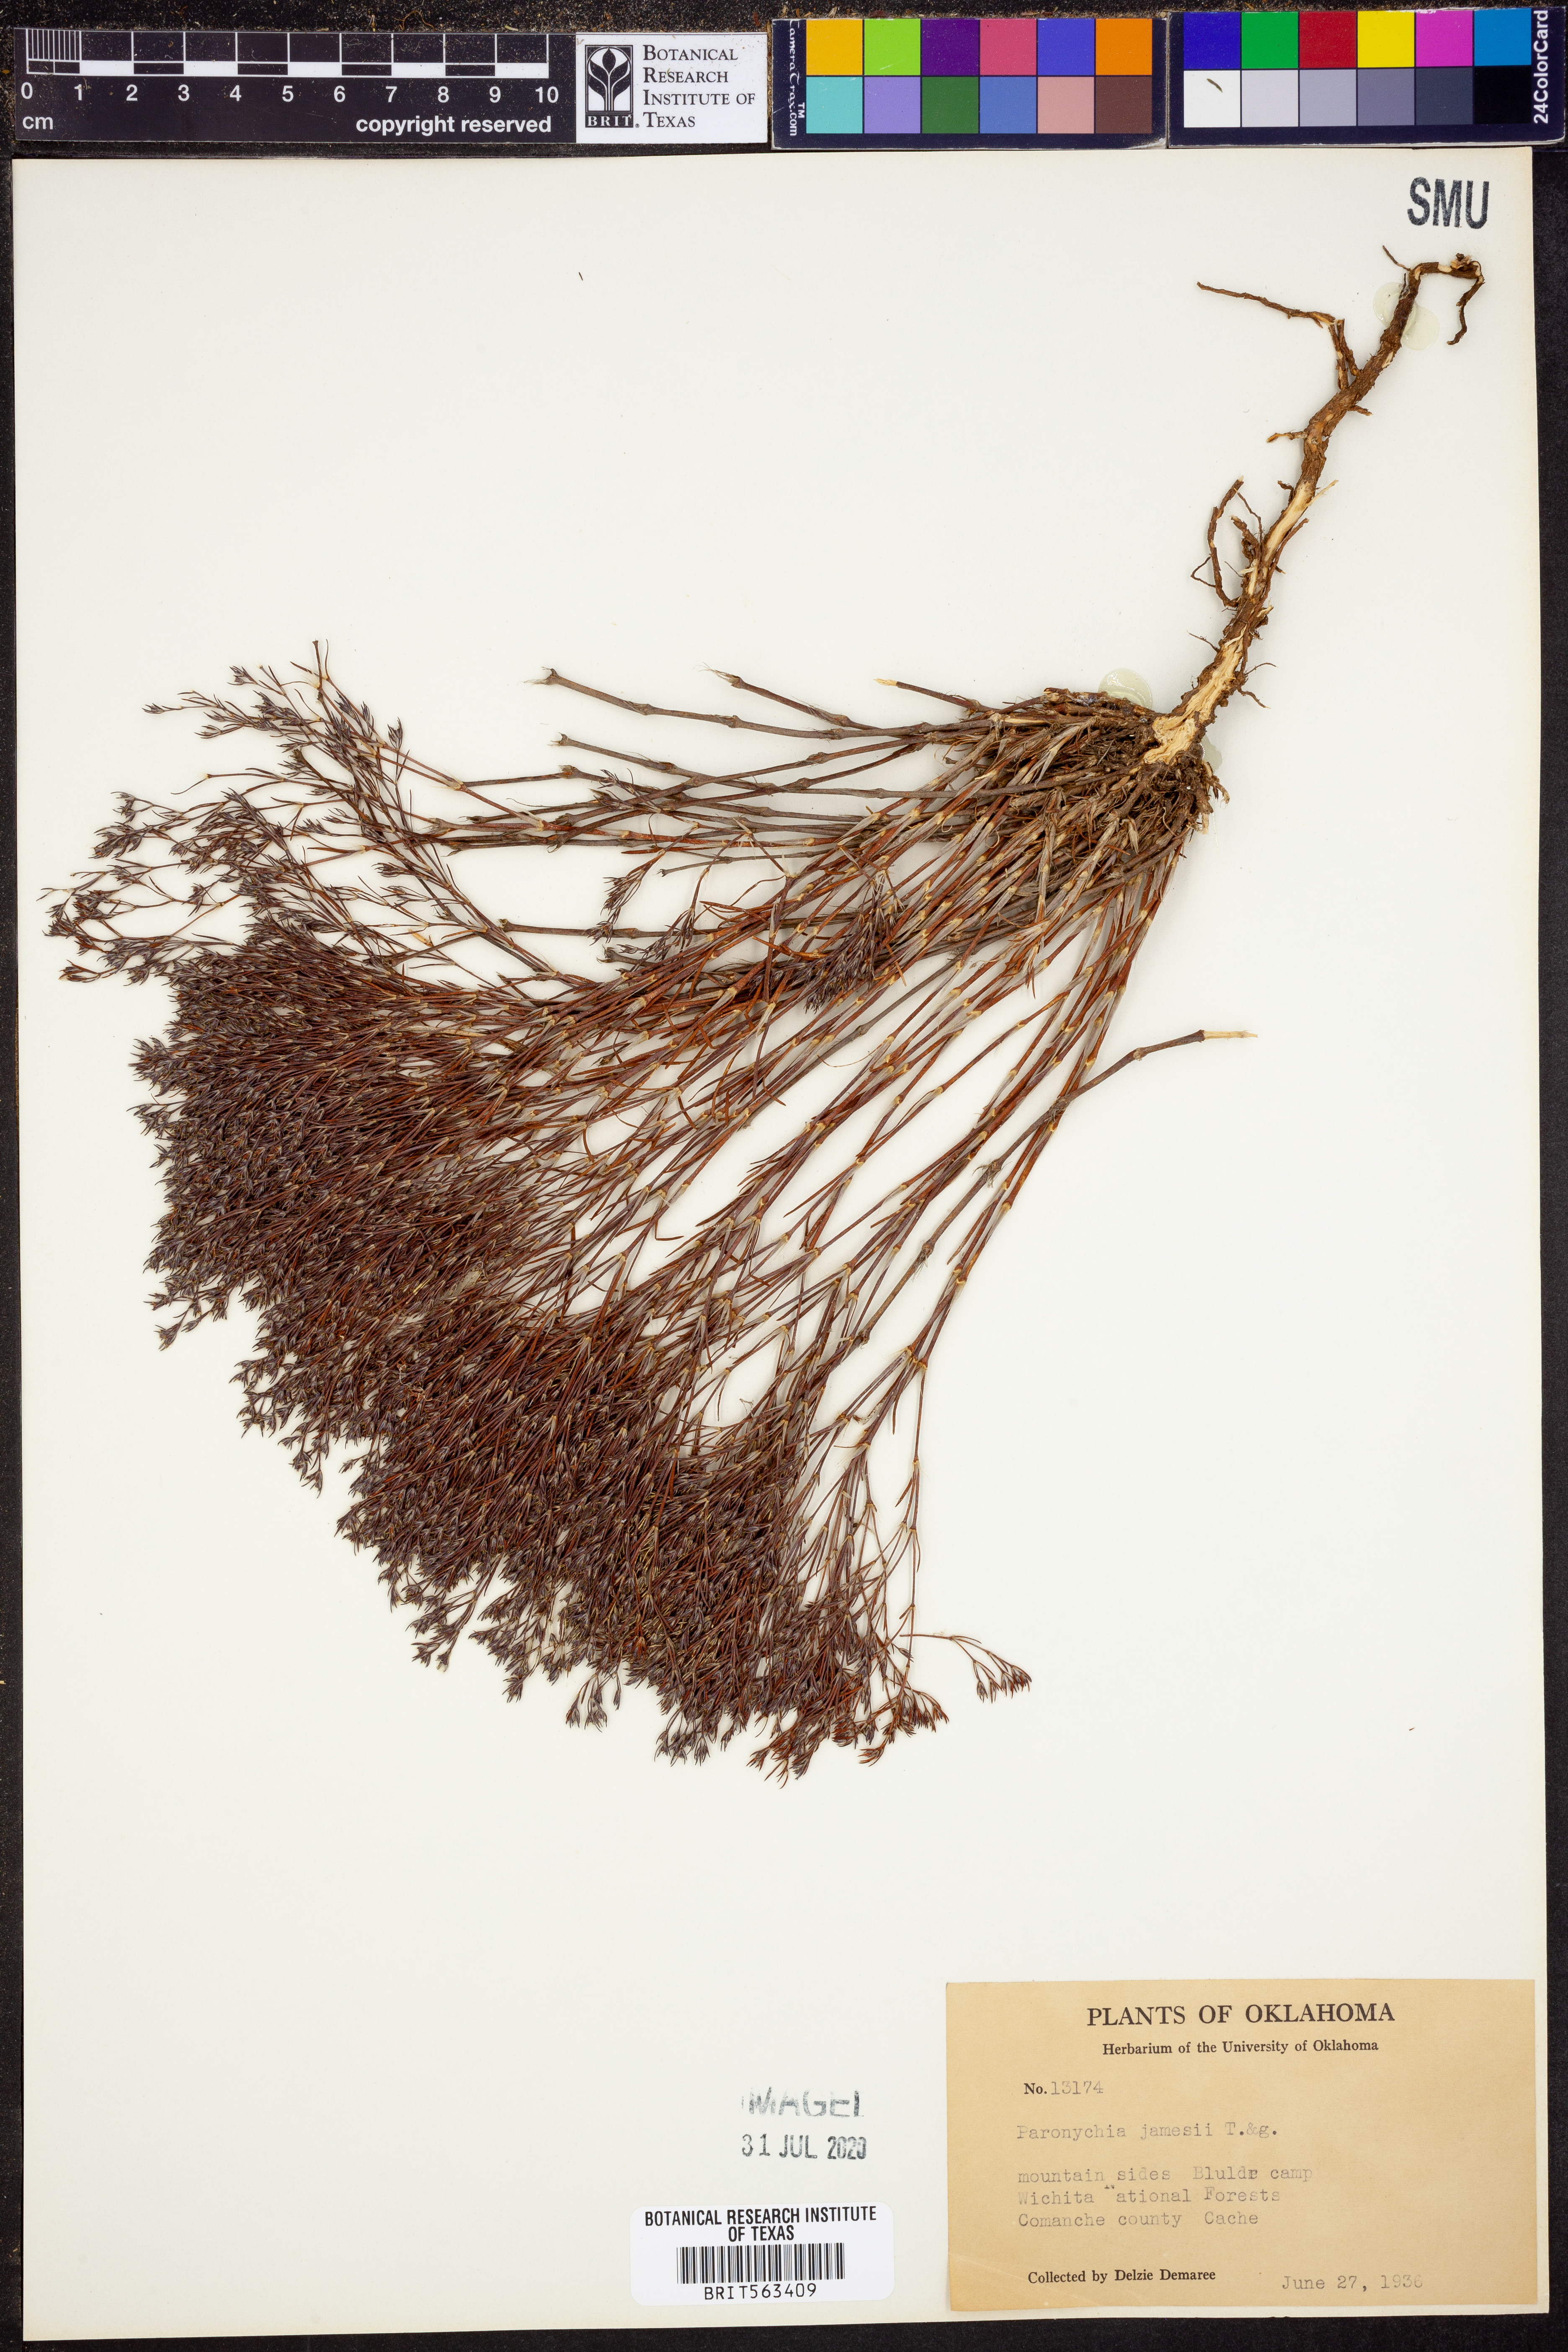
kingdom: Plantae
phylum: Tracheophyta
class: Magnoliopsida
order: Caryophyllales
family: Caryophyllaceae
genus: Paronychia
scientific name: Paronychia jamesii
